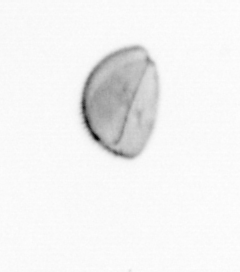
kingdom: Chromista
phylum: Ochrophyta
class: Bacillariophyceae
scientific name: Bacillariophyceae
